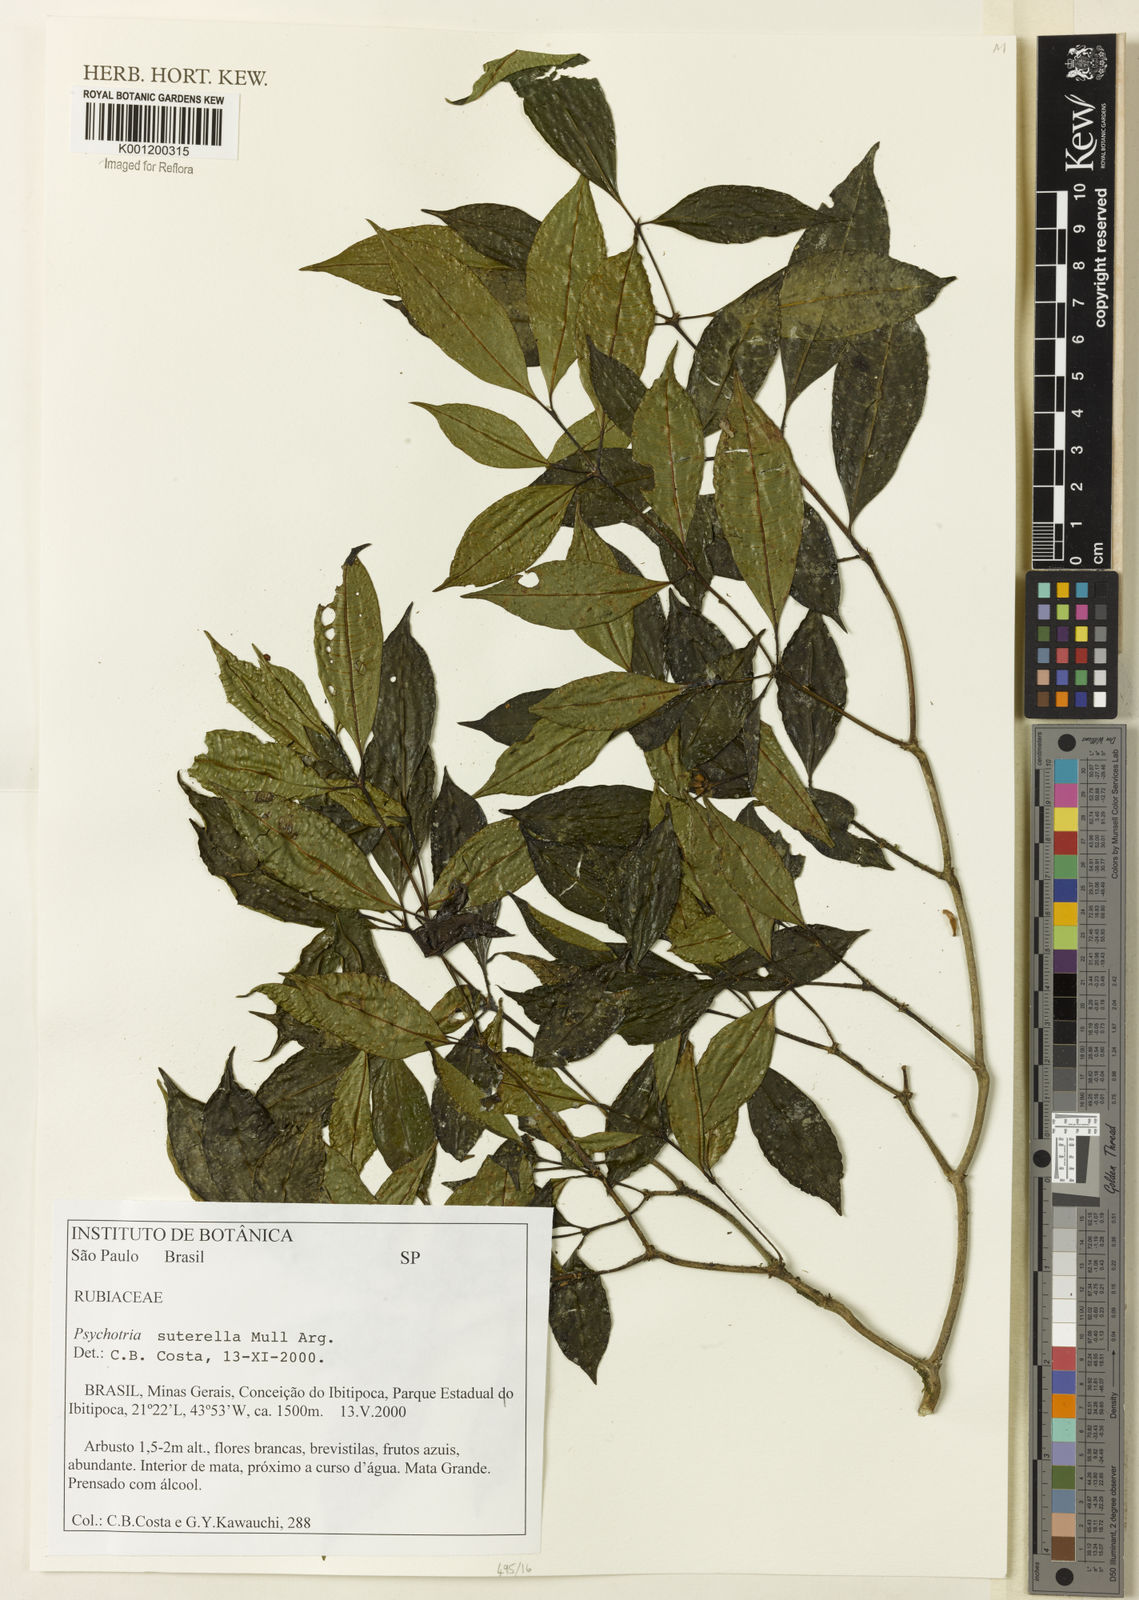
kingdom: Plantae
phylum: Tracheophyta
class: Magnoliopsida
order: Gentianales
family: Rubiaceae
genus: Psychotria
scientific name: Psychotria
